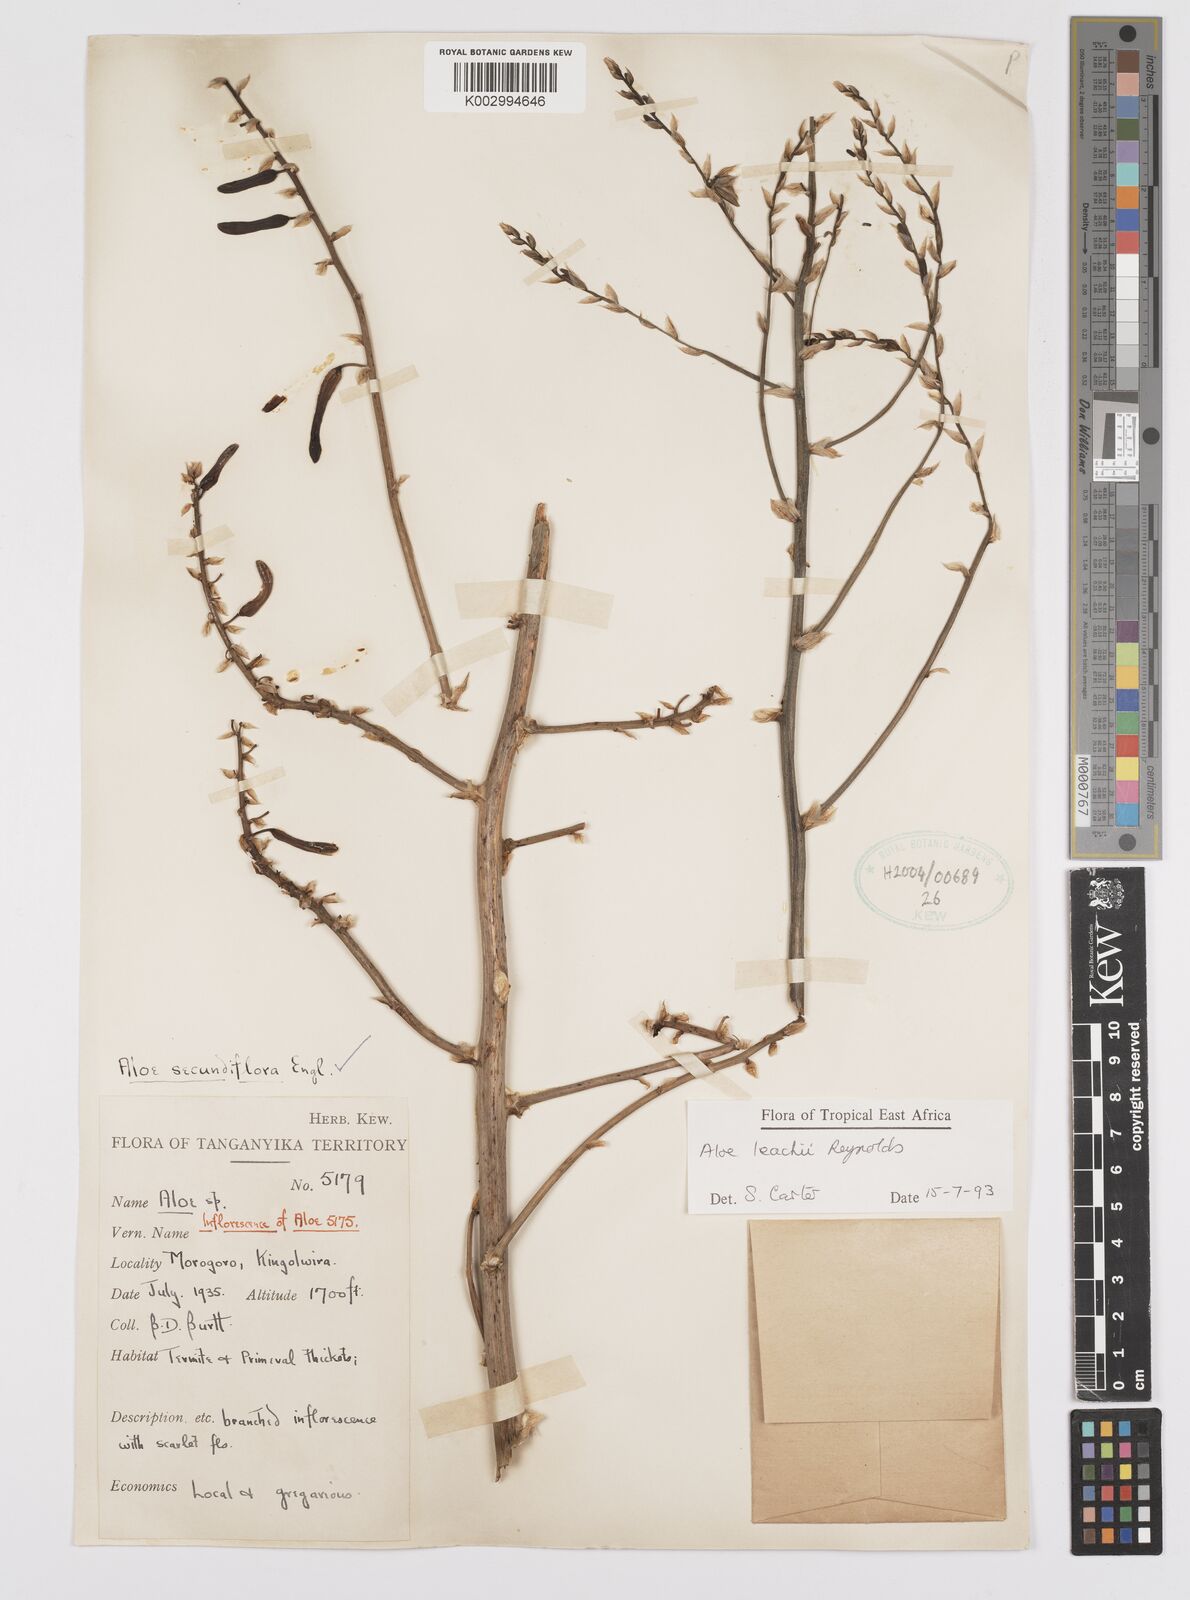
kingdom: Plantae
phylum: Tracheophyta
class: Liliopsida
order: Asparagales
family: Asphodelaceae
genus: Aloe
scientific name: Aloe leachii
